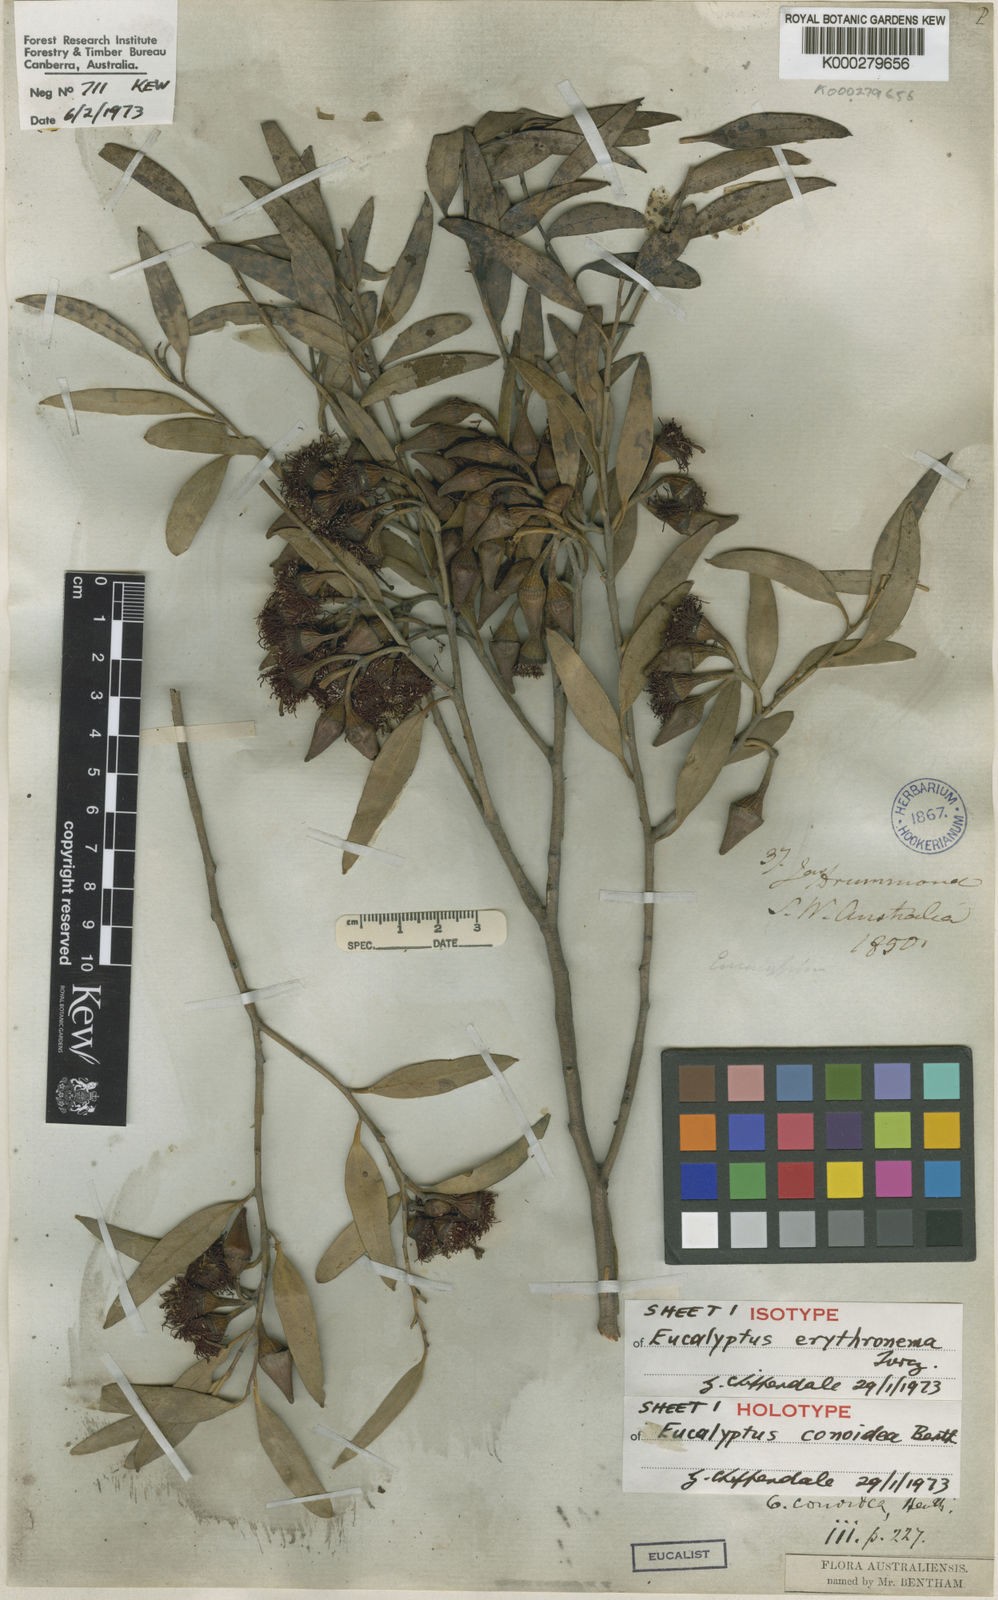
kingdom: Plantae
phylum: Tracheophyta
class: Magnoliopsida
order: Myrtales
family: Myrtaceae
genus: Eucalyptus
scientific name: Eucalyptus erythronema
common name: Red-flowered mallee
